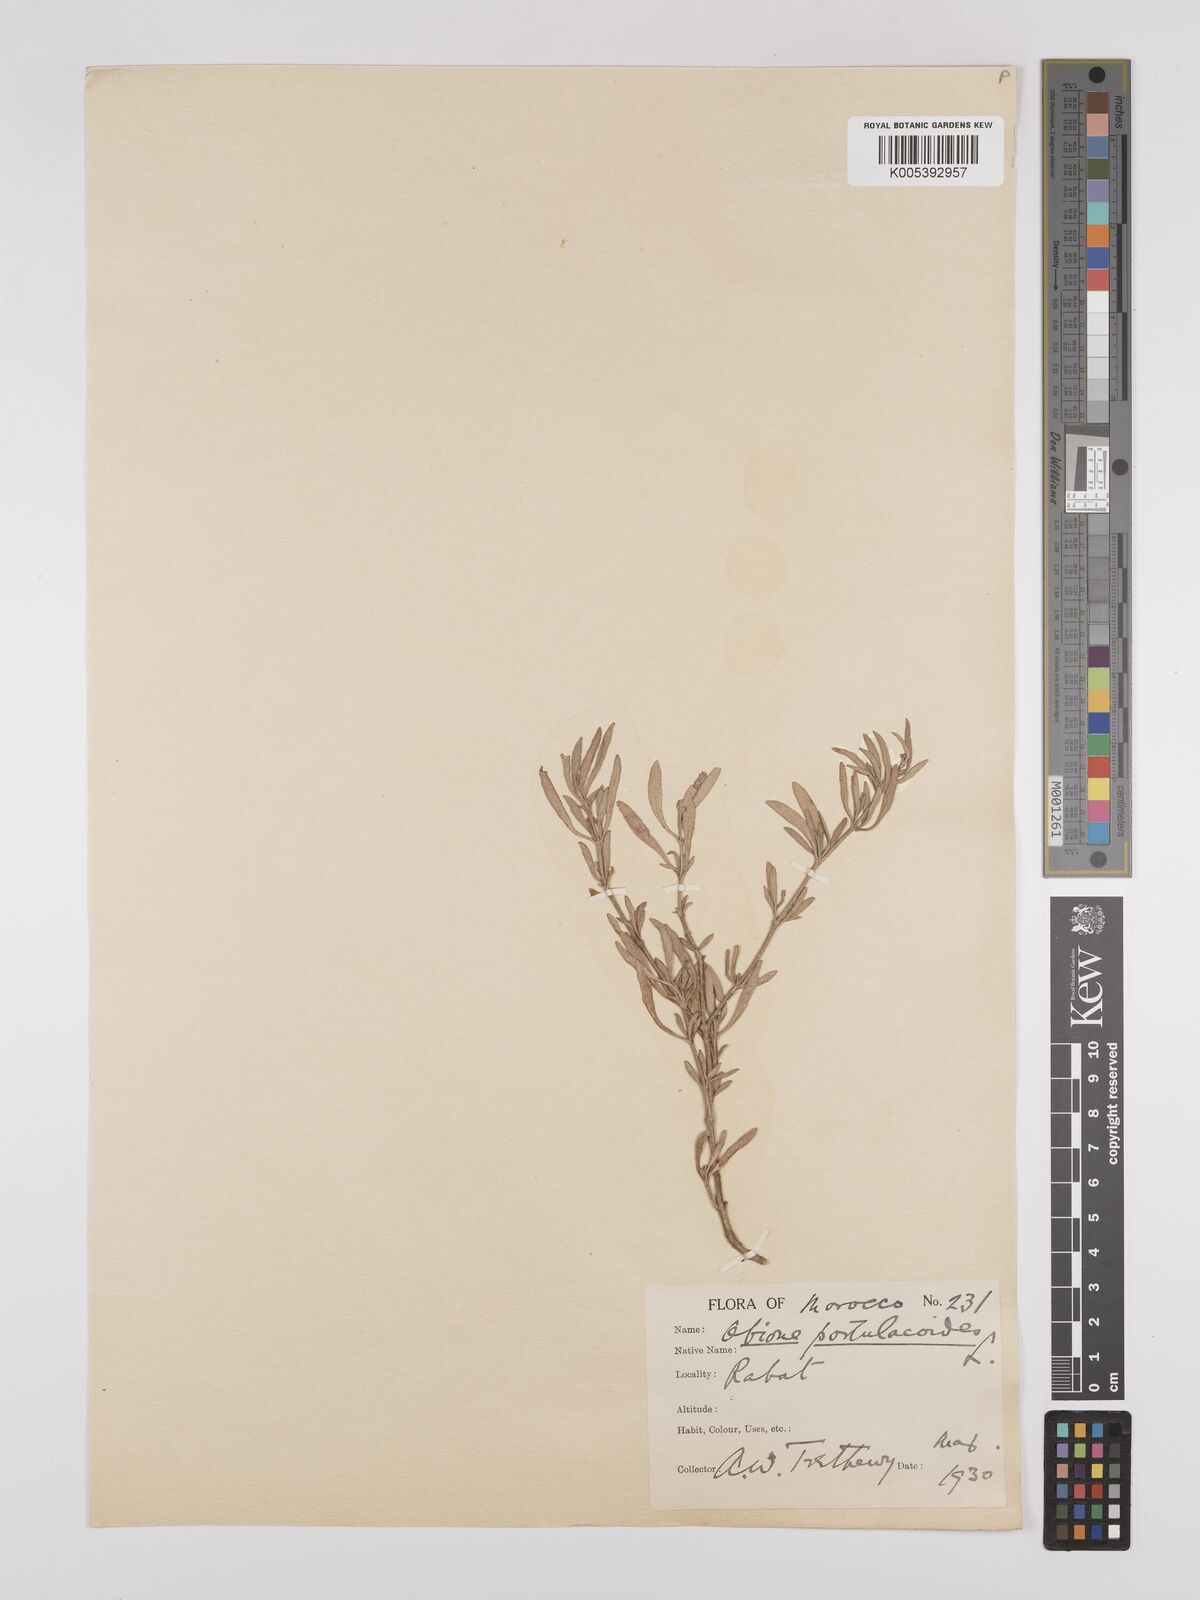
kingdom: Plantae
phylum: Tracheophyta
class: Magnoliopsida
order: Caryophyllales
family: Amaranthaceae
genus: Halimione
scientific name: Halimione portulacoides
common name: Sea-purslane
